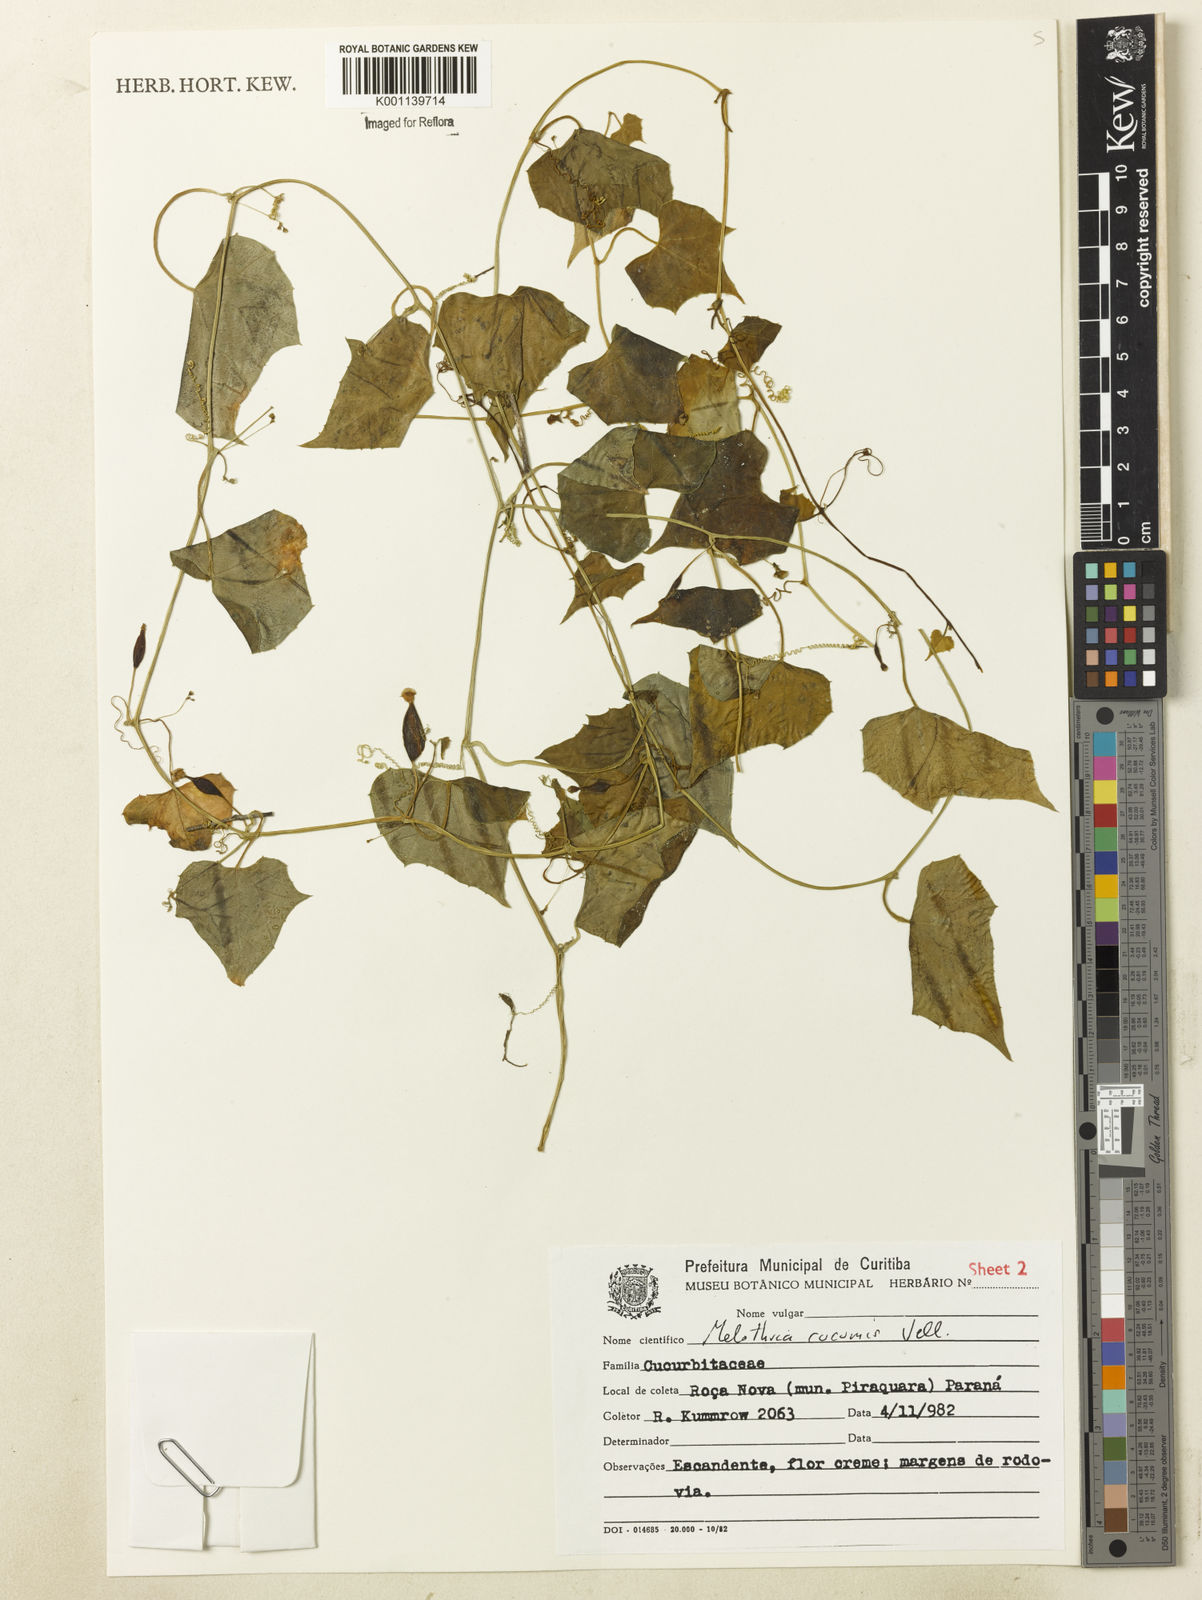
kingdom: Plantae
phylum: Tracheophyta
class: Magnoliopsida
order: Cucurbitales
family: Cucurbitaceae
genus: Melothria
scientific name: Melothria cucumis
